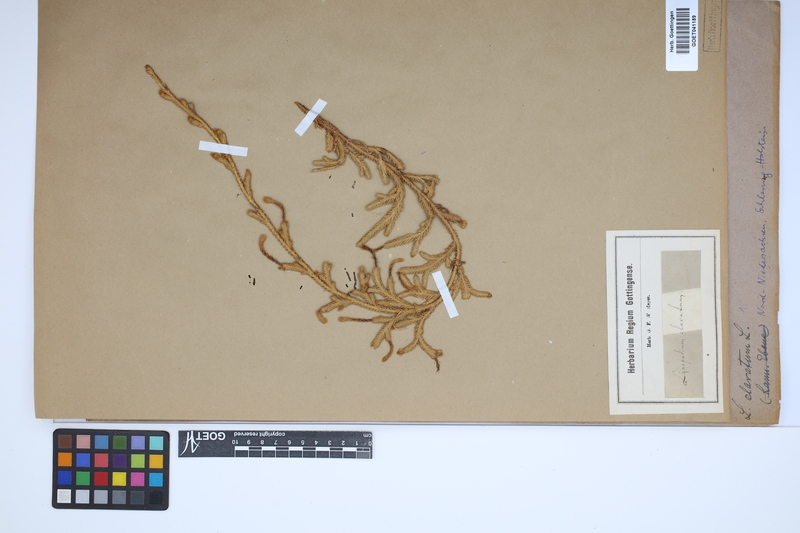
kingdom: Plantae
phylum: Tracheophyta
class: Lycopodiopsida
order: Lycopodiales
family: Lycopodiaceae
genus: Lycopodium
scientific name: Lycopodium clavatum
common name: Stag's-horn clubmoss
